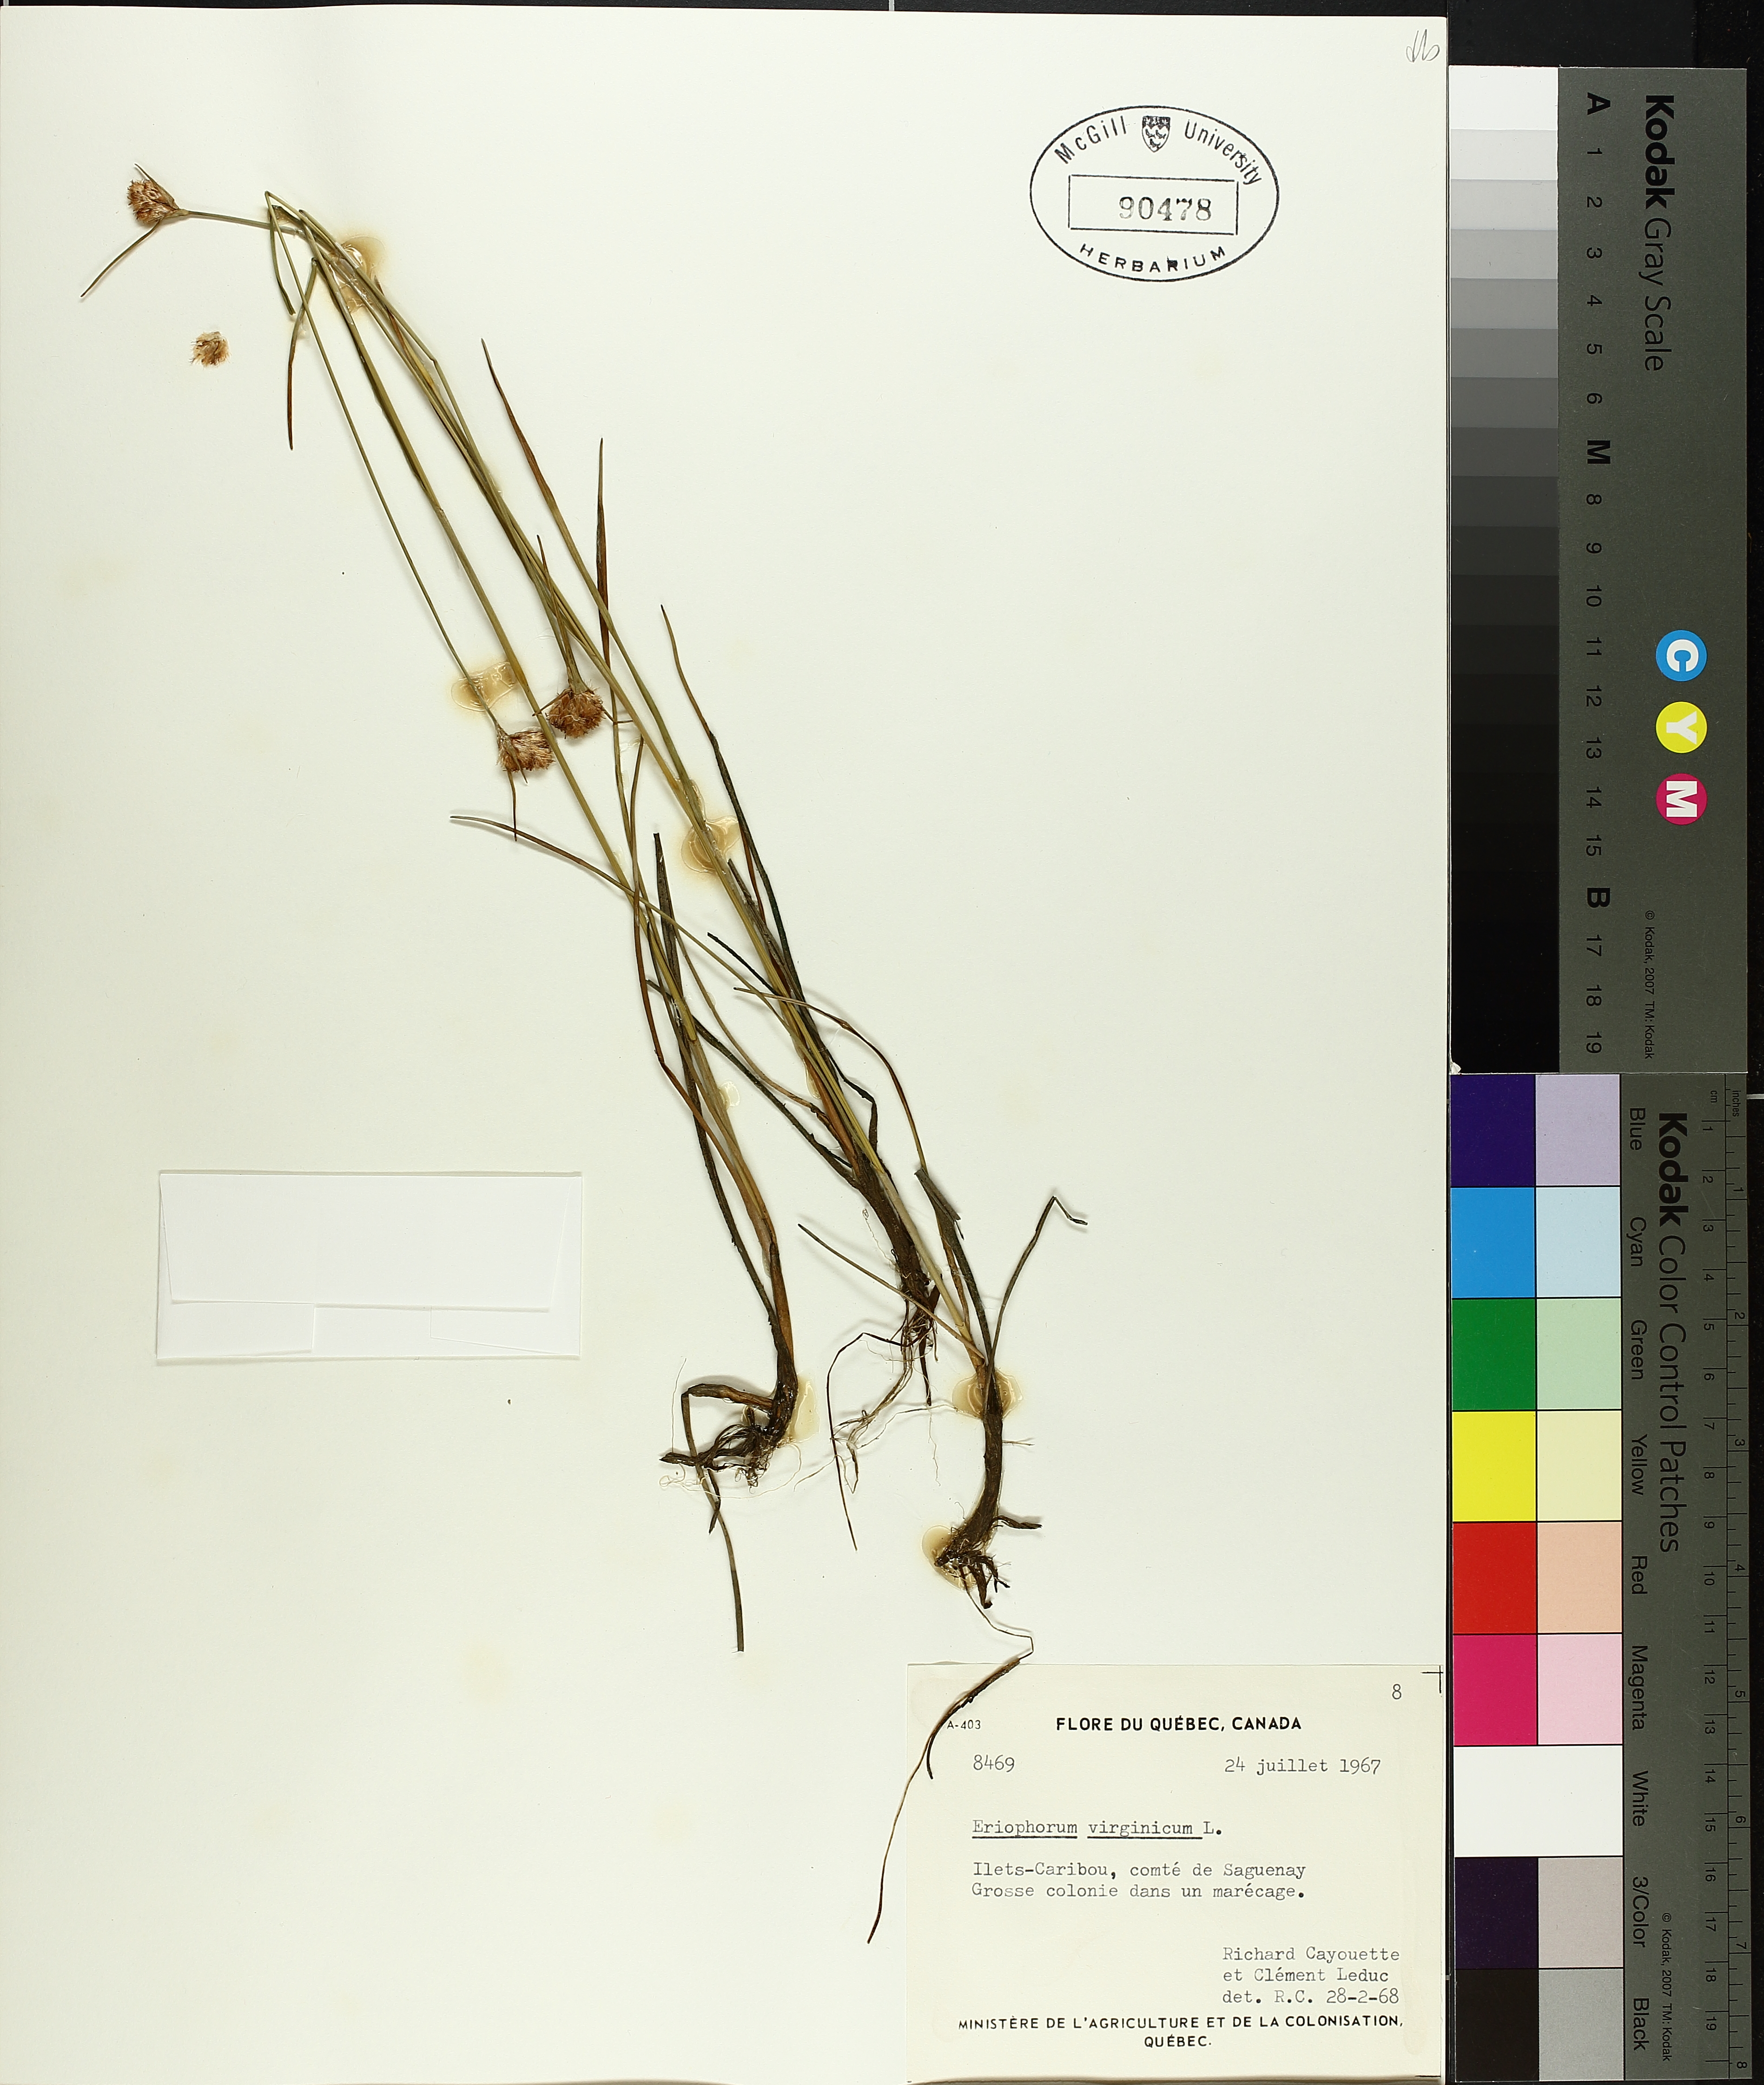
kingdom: Plantae
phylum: Tracheophyta
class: Liliopsida
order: Poales
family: Cyperaceae
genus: Eriophorum
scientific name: Eriophorum virginicum
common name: Tawny cottongrass
